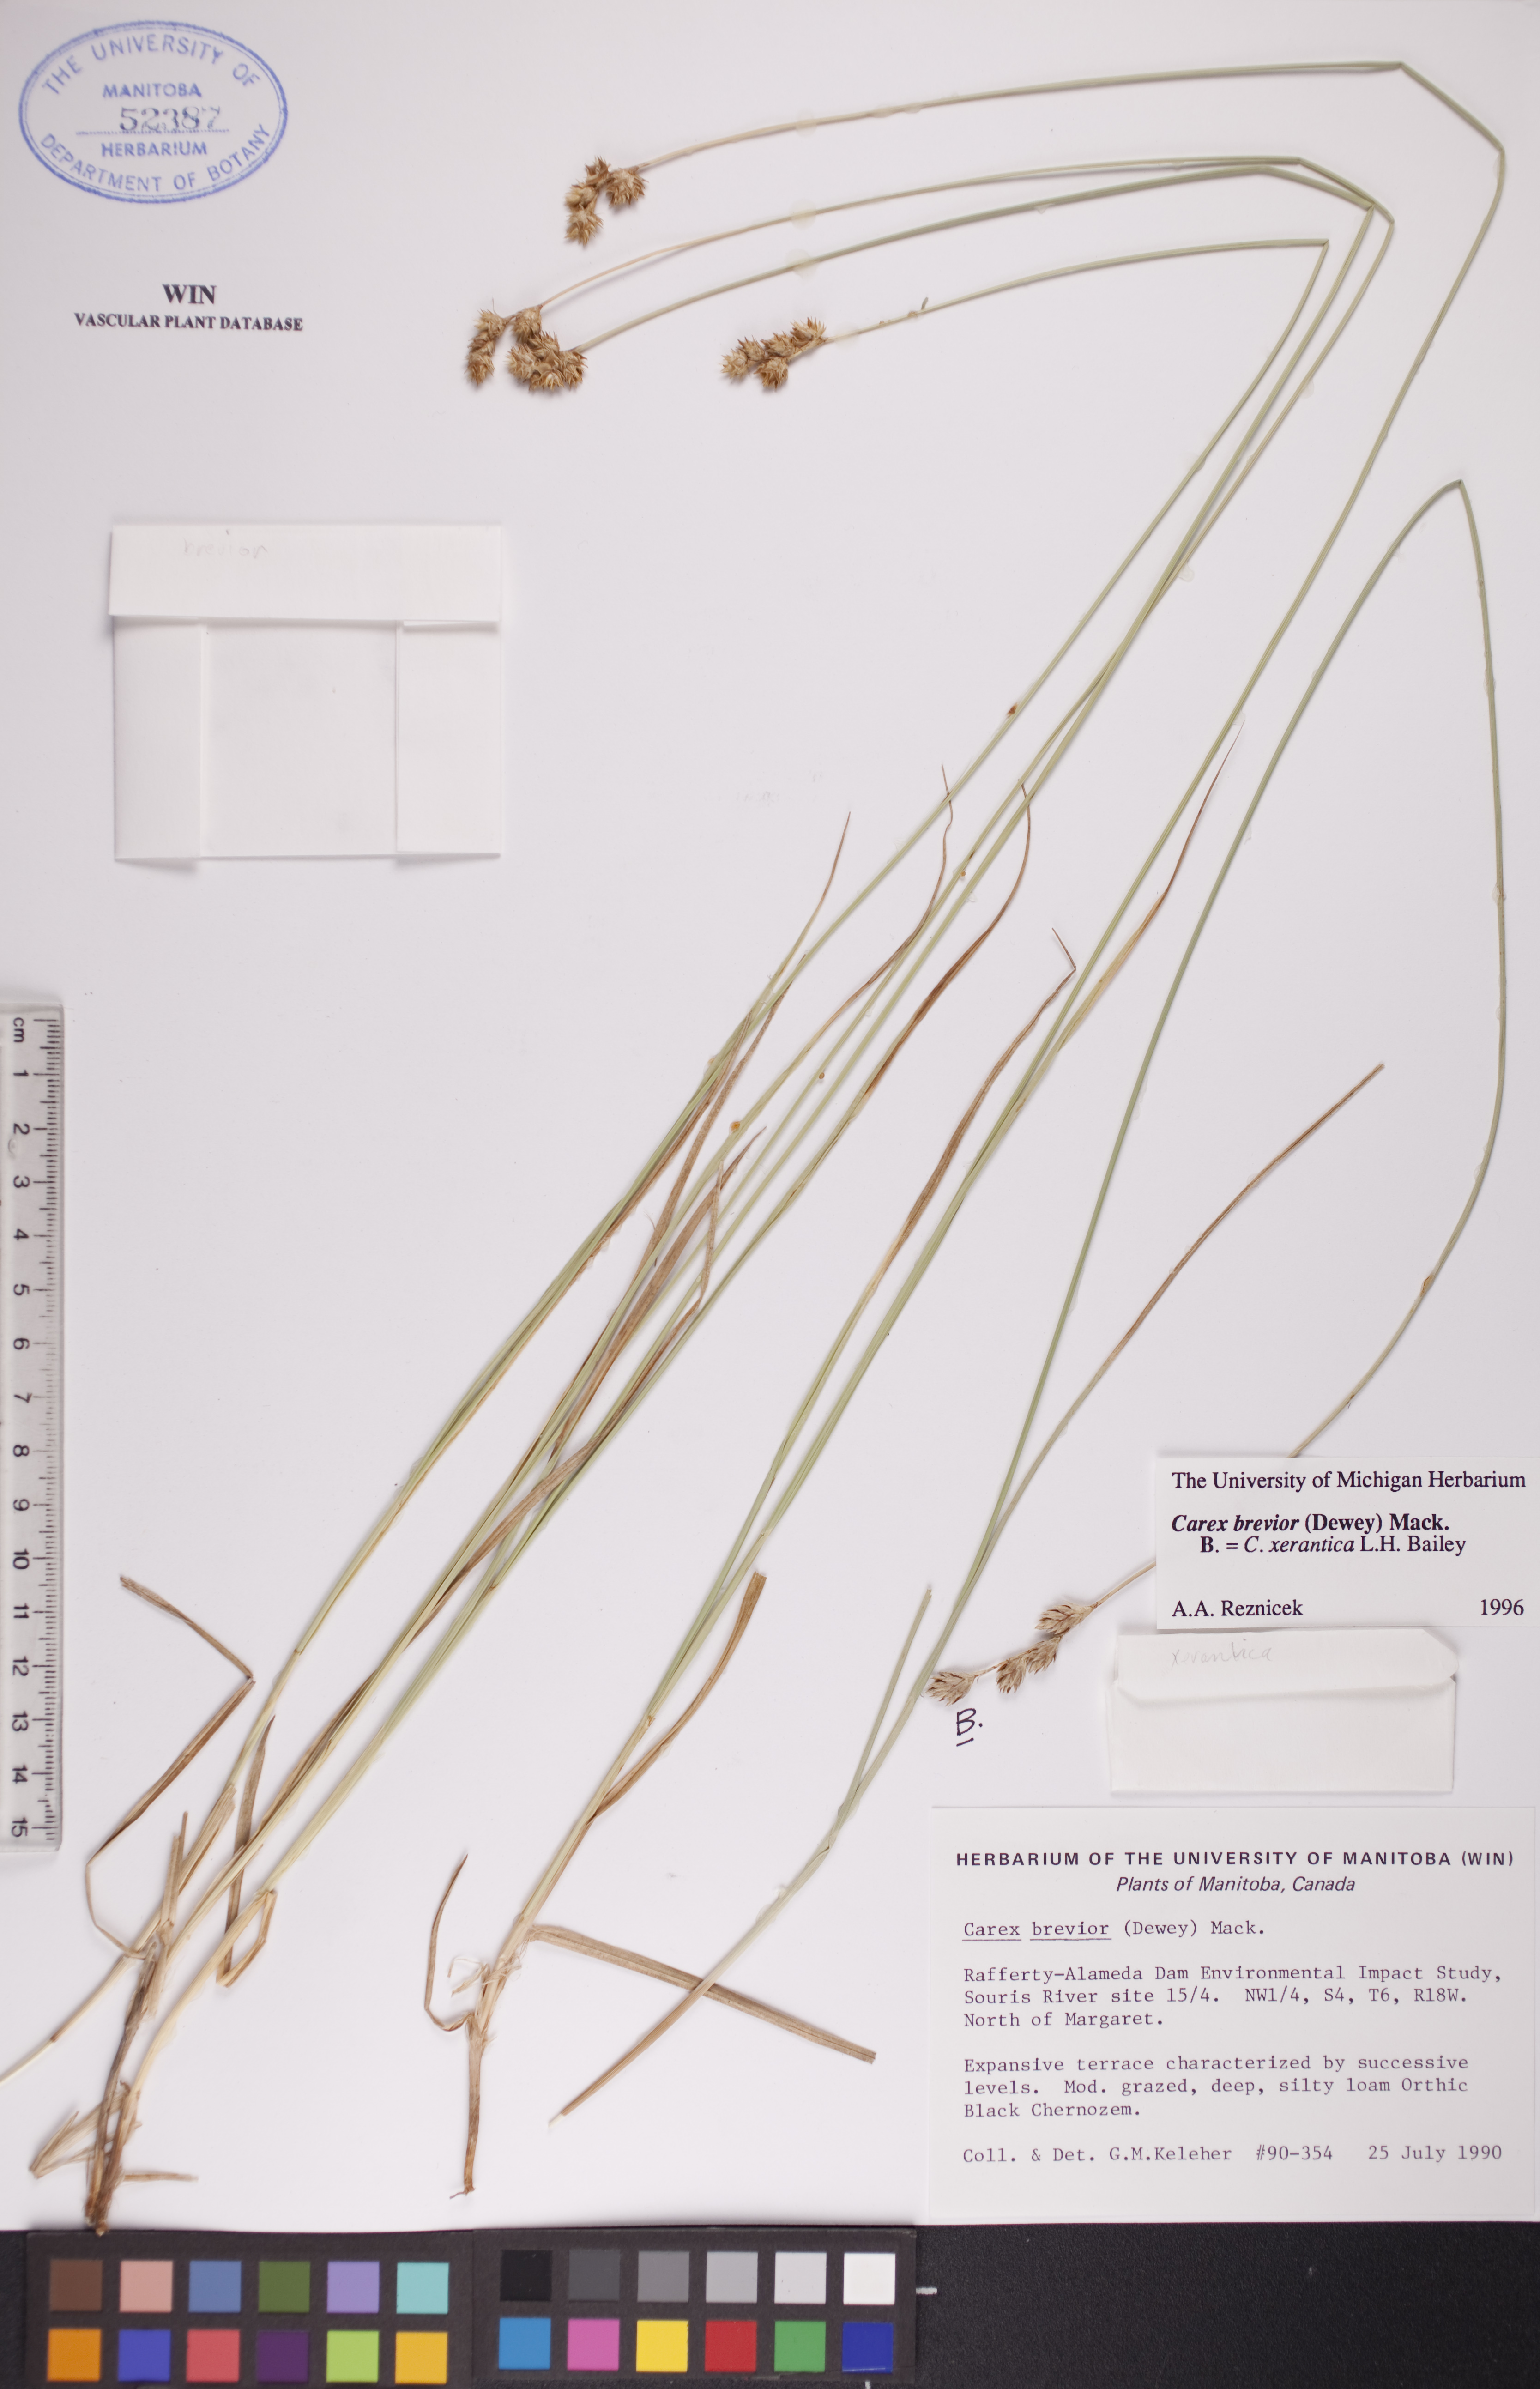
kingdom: Plantae
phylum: Tracheophyta
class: Liliopsida
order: Poales
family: Cyperaceae
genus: Carex
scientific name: Carex xerantica
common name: Dryland sedge
